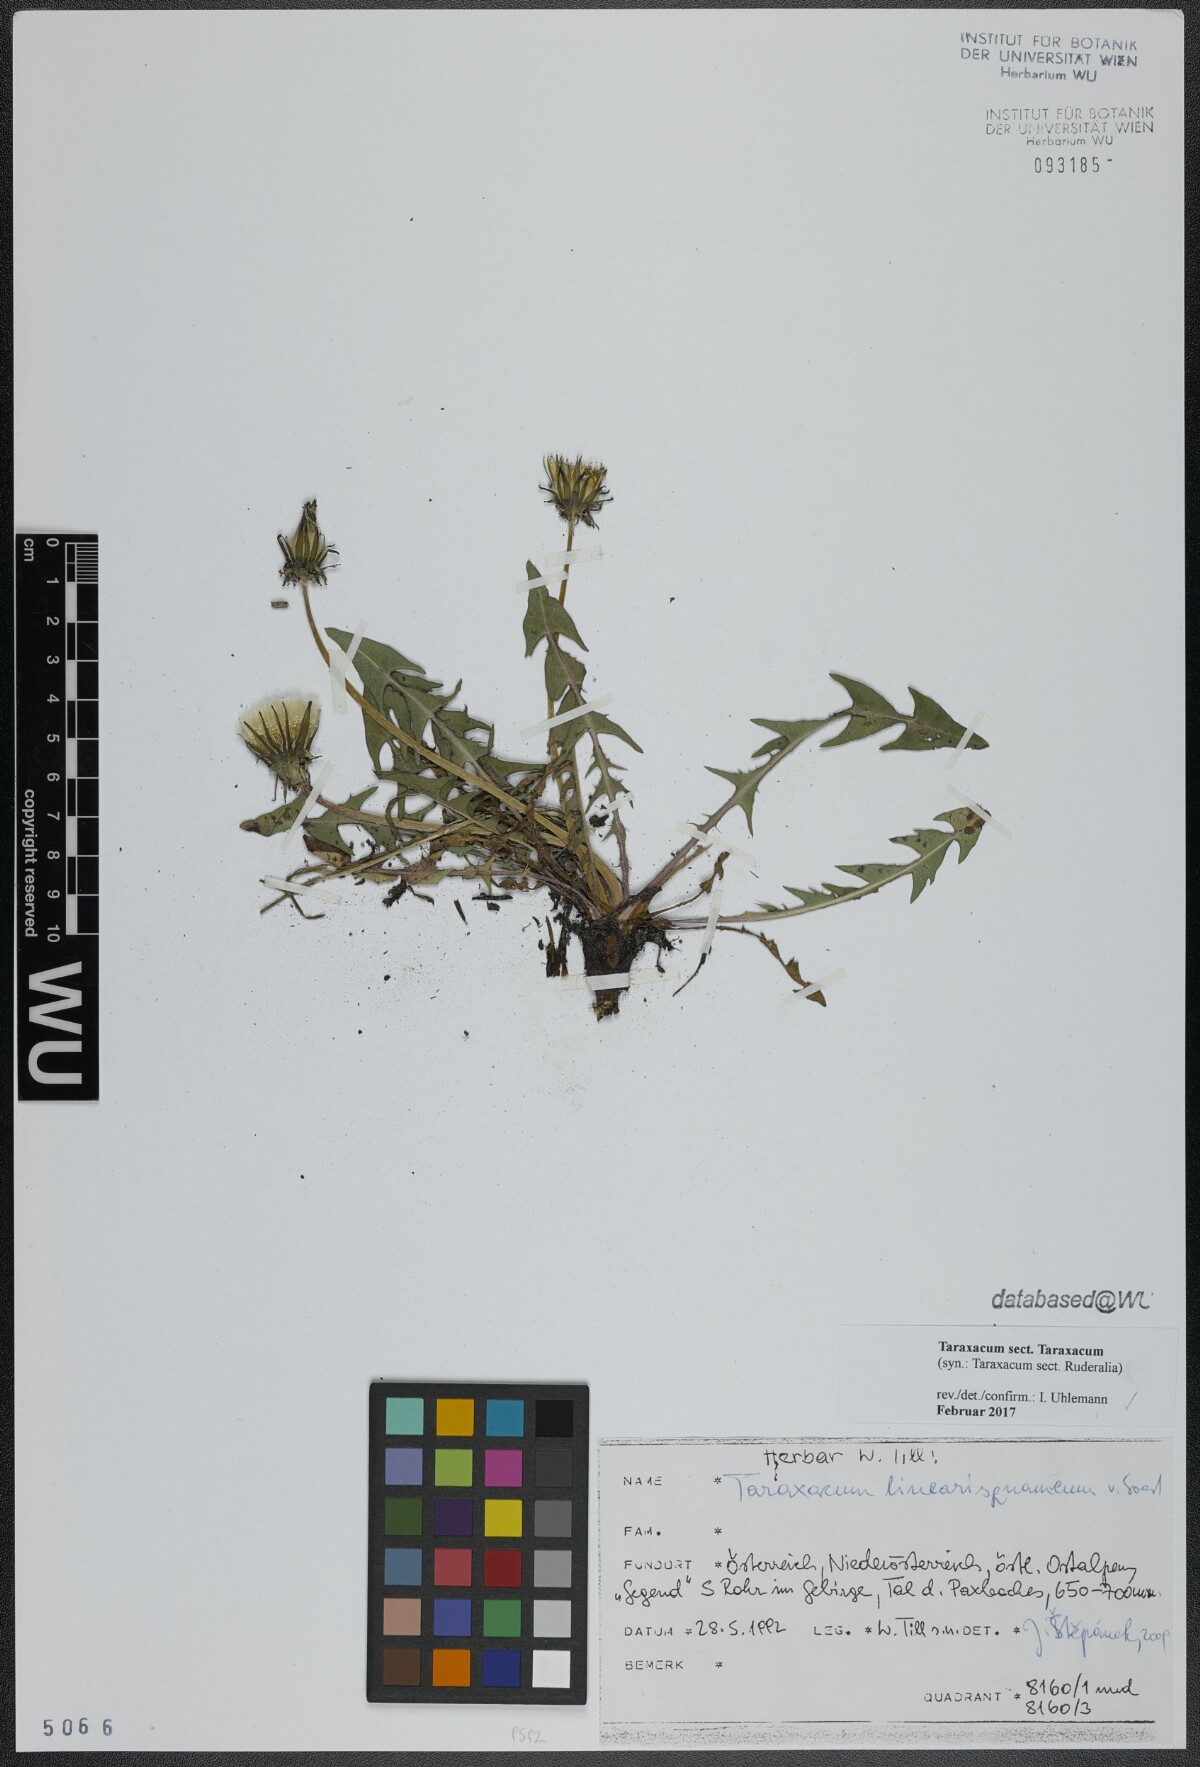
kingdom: Plantae
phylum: Tracheophyta
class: Magnoliopsida
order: Asterales
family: Asteraceae
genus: Taraxacum
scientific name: Taraxacum
